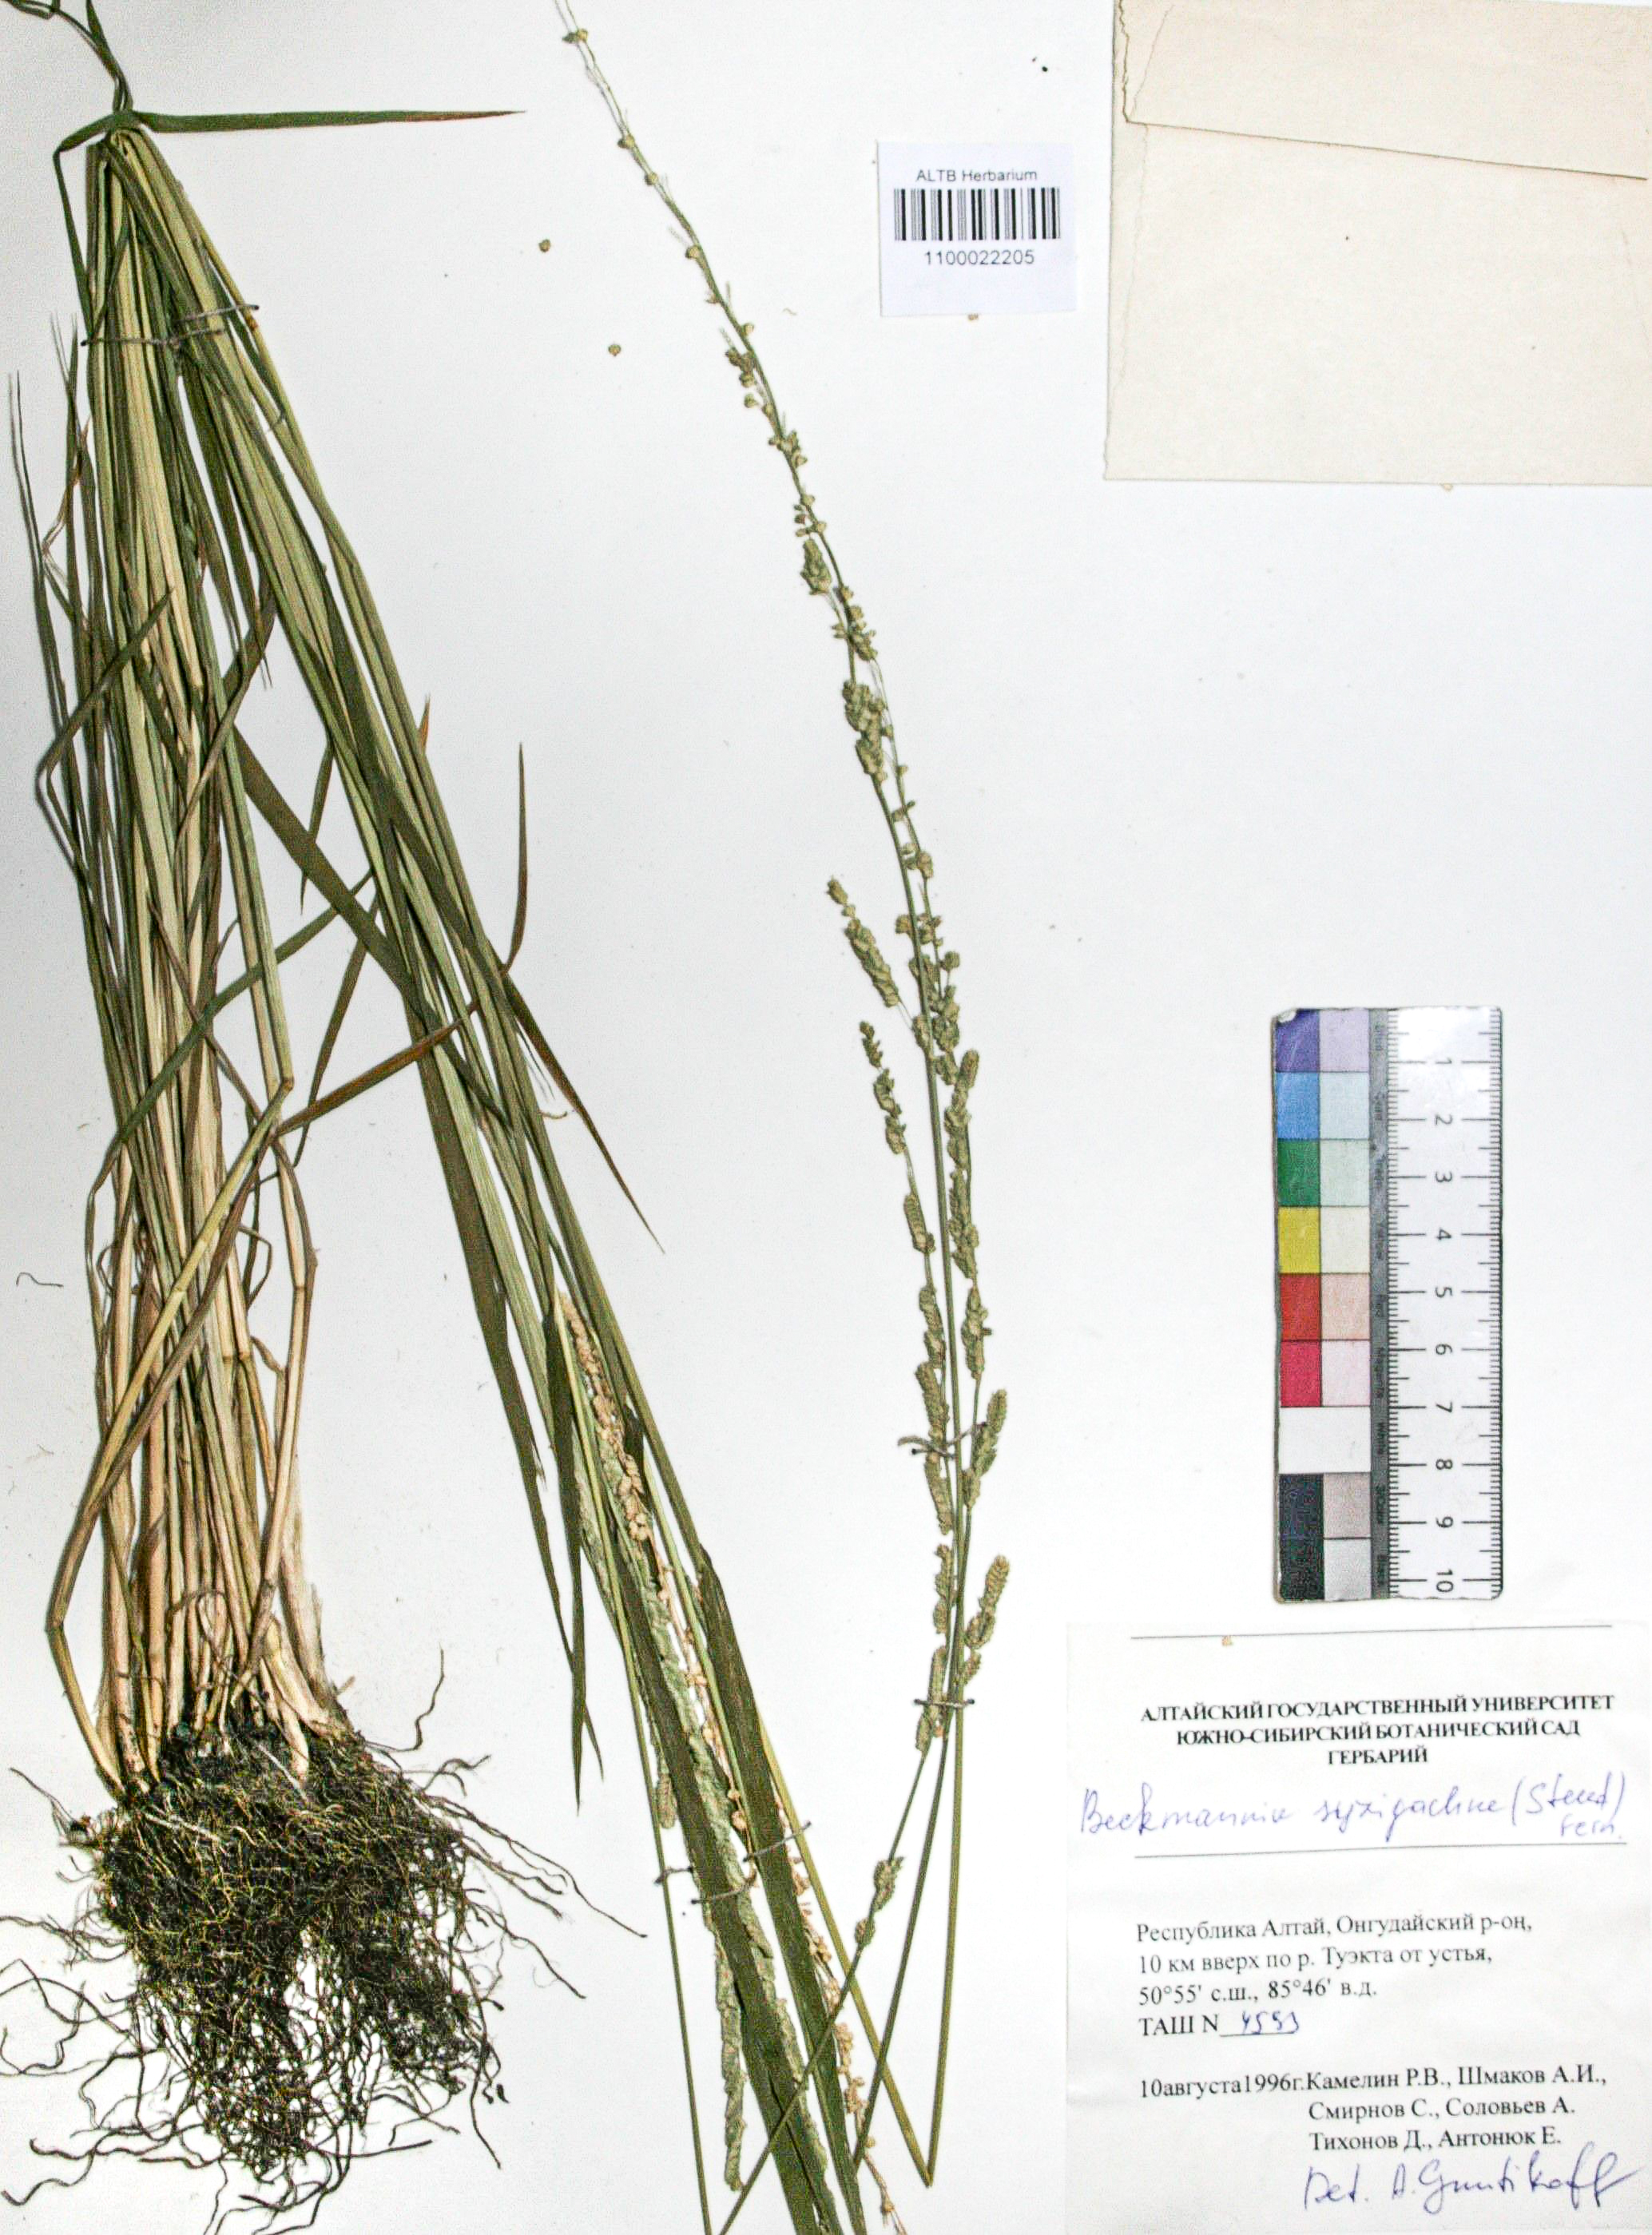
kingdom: Plantae
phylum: Tracheophyta
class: Liliopsida
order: Poales
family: Poaceae
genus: Beckmannia
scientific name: Beckmannia syzigachne
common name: American slough-grass
